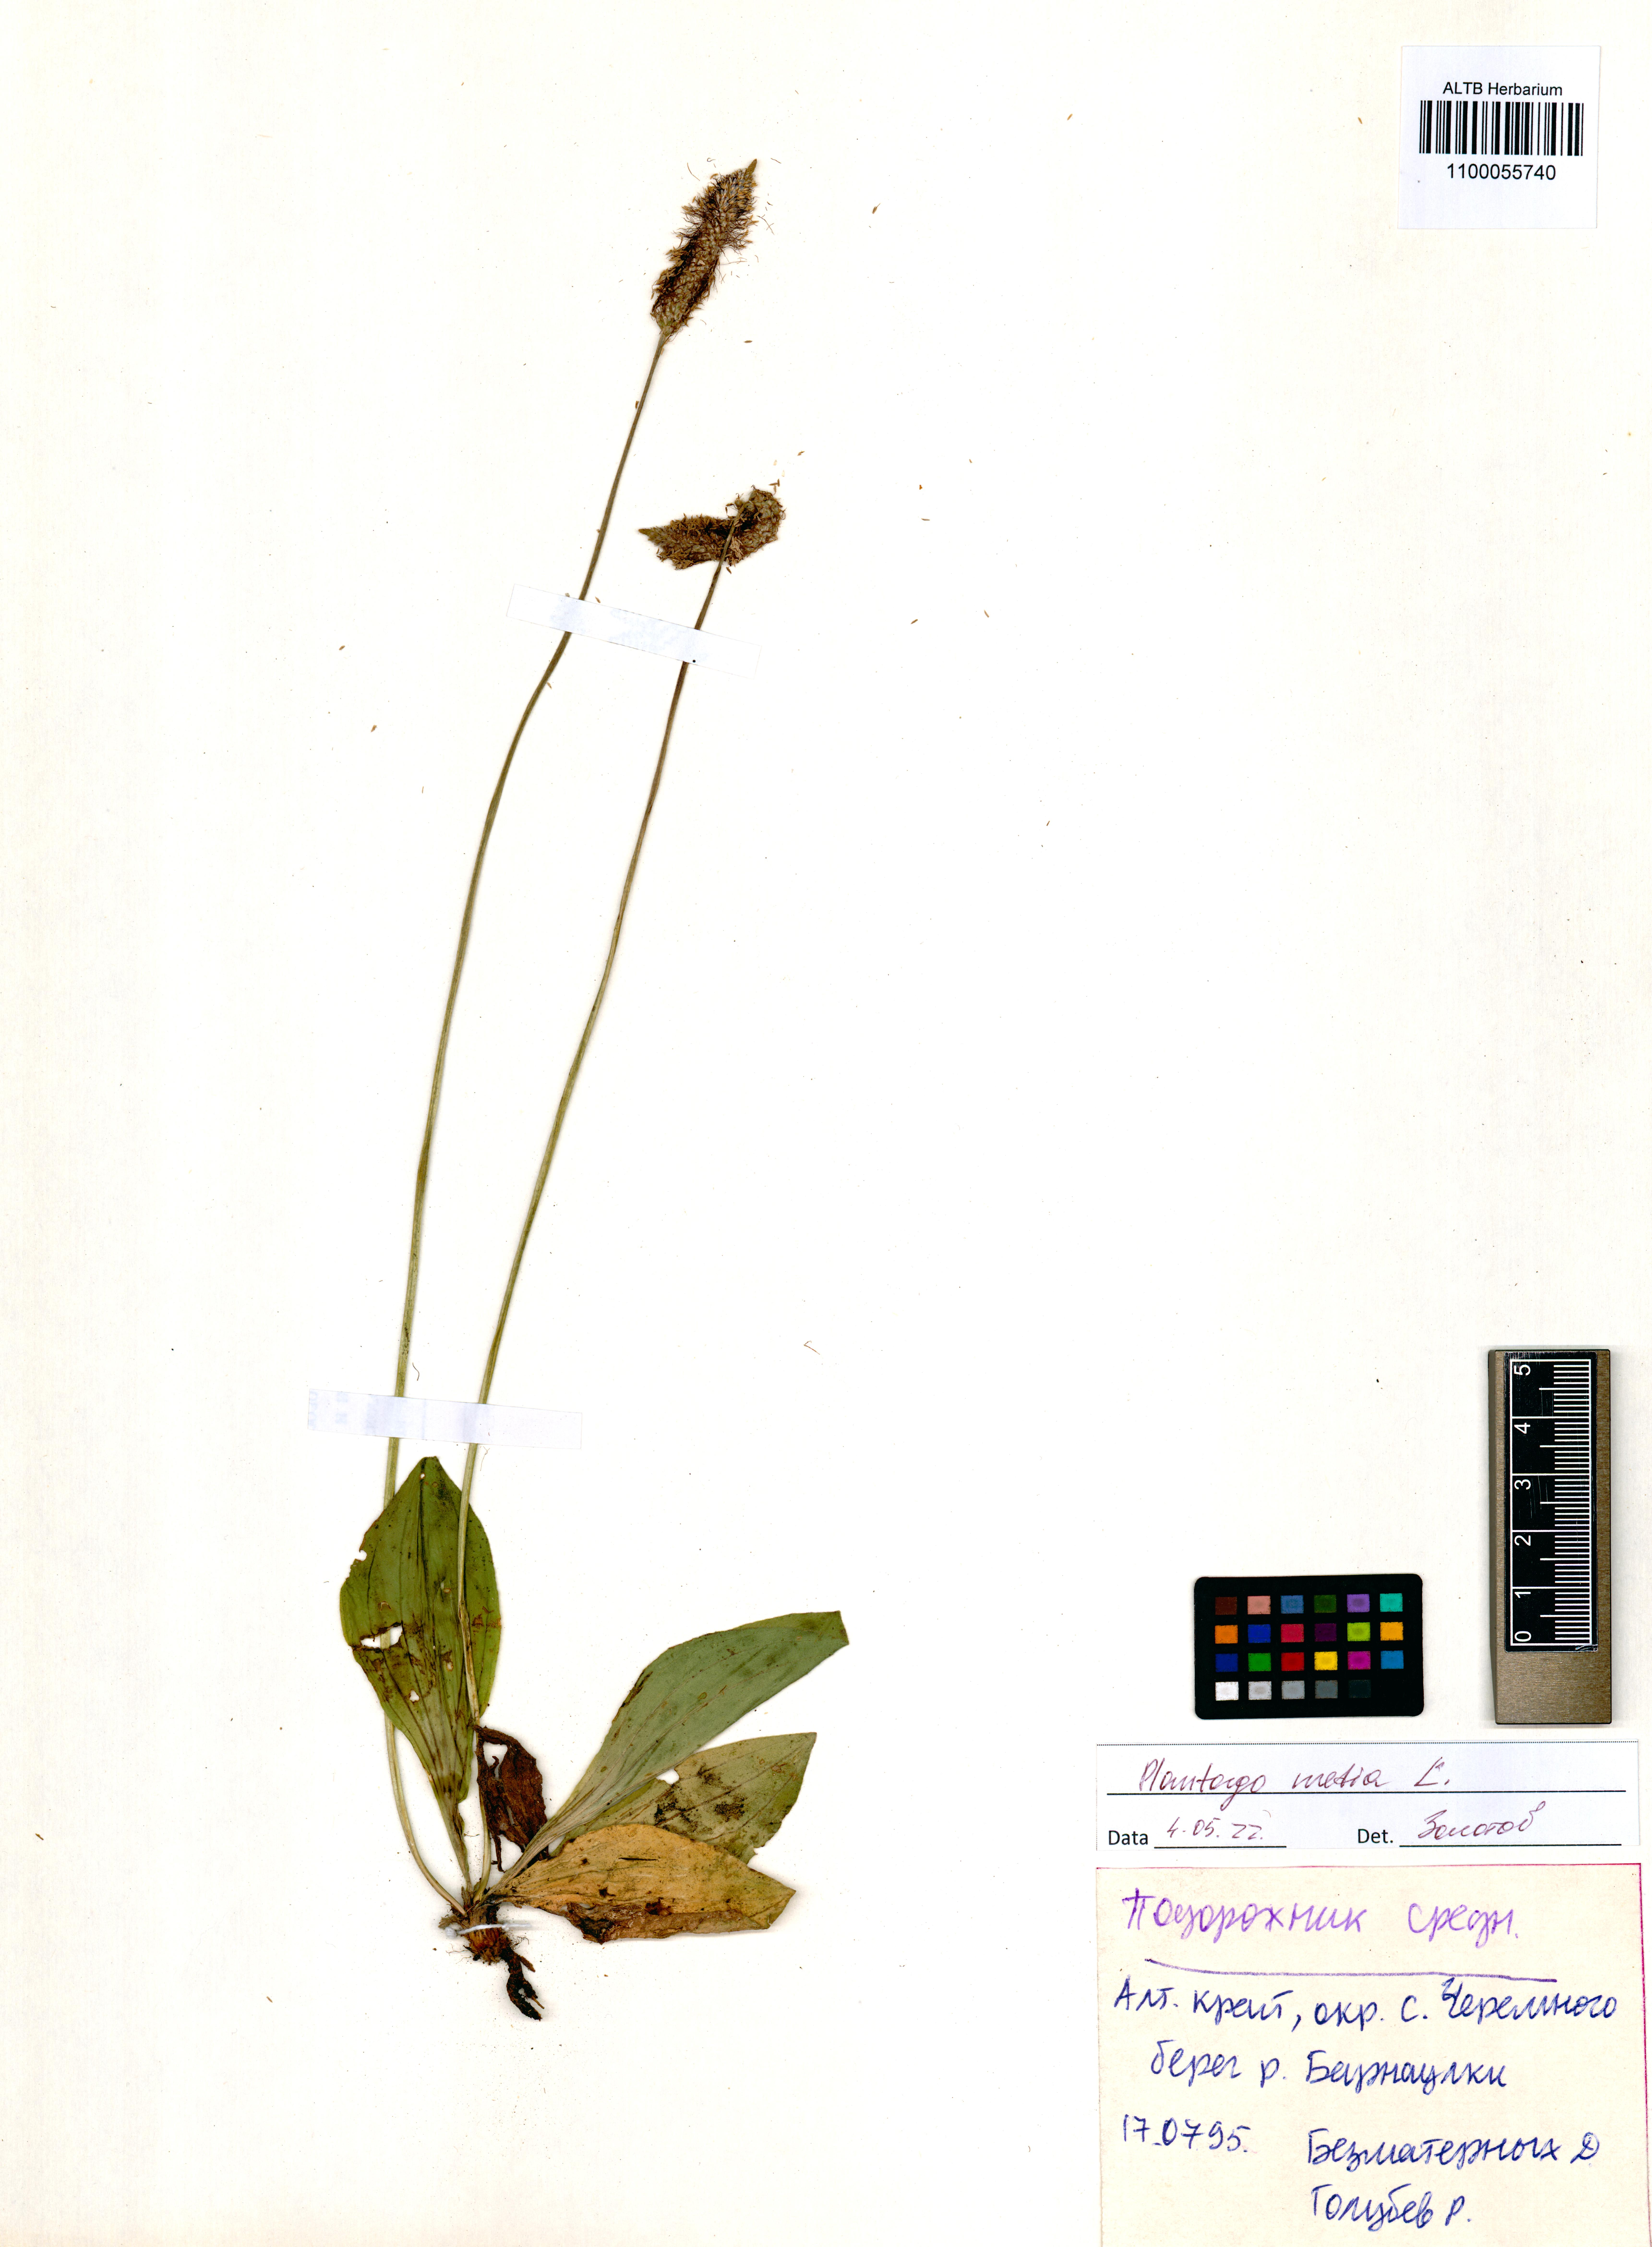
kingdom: Plantae
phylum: Tracheophyta
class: Magnoliopsida
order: Lamiales
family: Plantaginaceae
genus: Plantago
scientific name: Plantago media
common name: Hoary plantain
